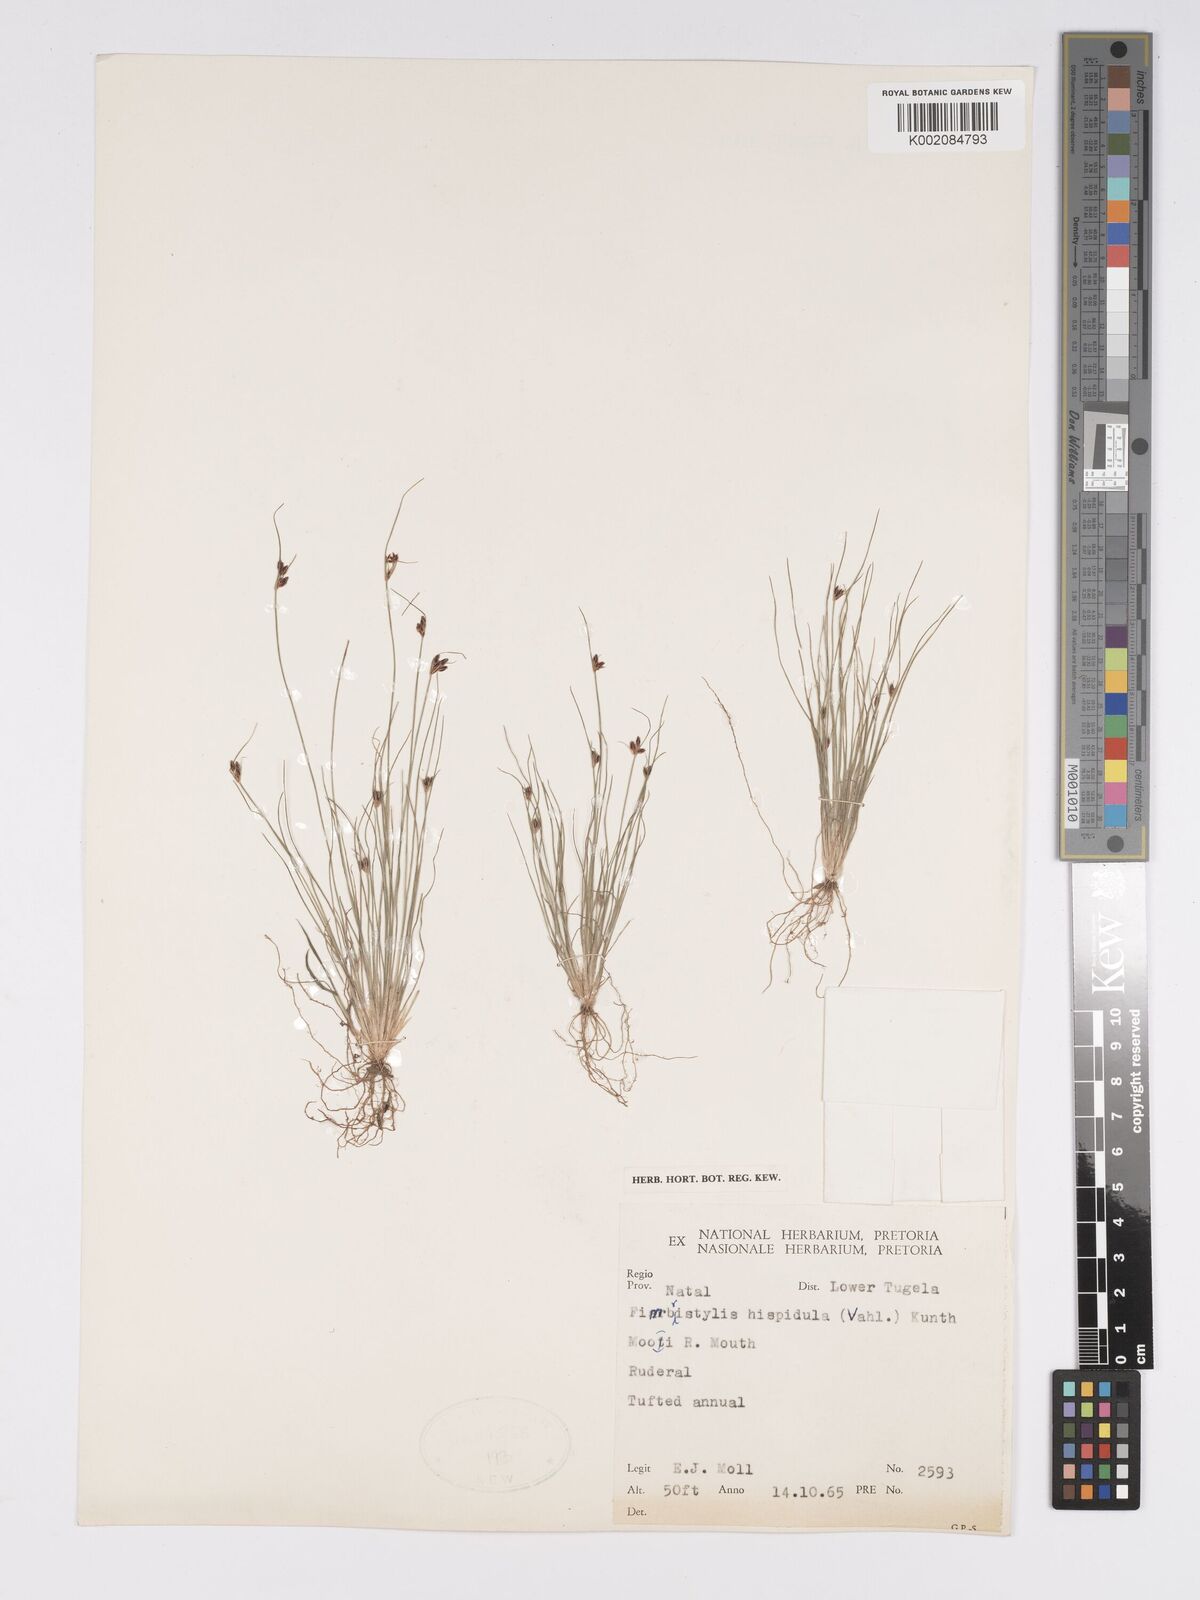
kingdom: Plantae
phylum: Tracheophyta
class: Liliopsida
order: Poales
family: Cyperaceae
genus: Bulbostylis
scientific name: Bulbostylis
